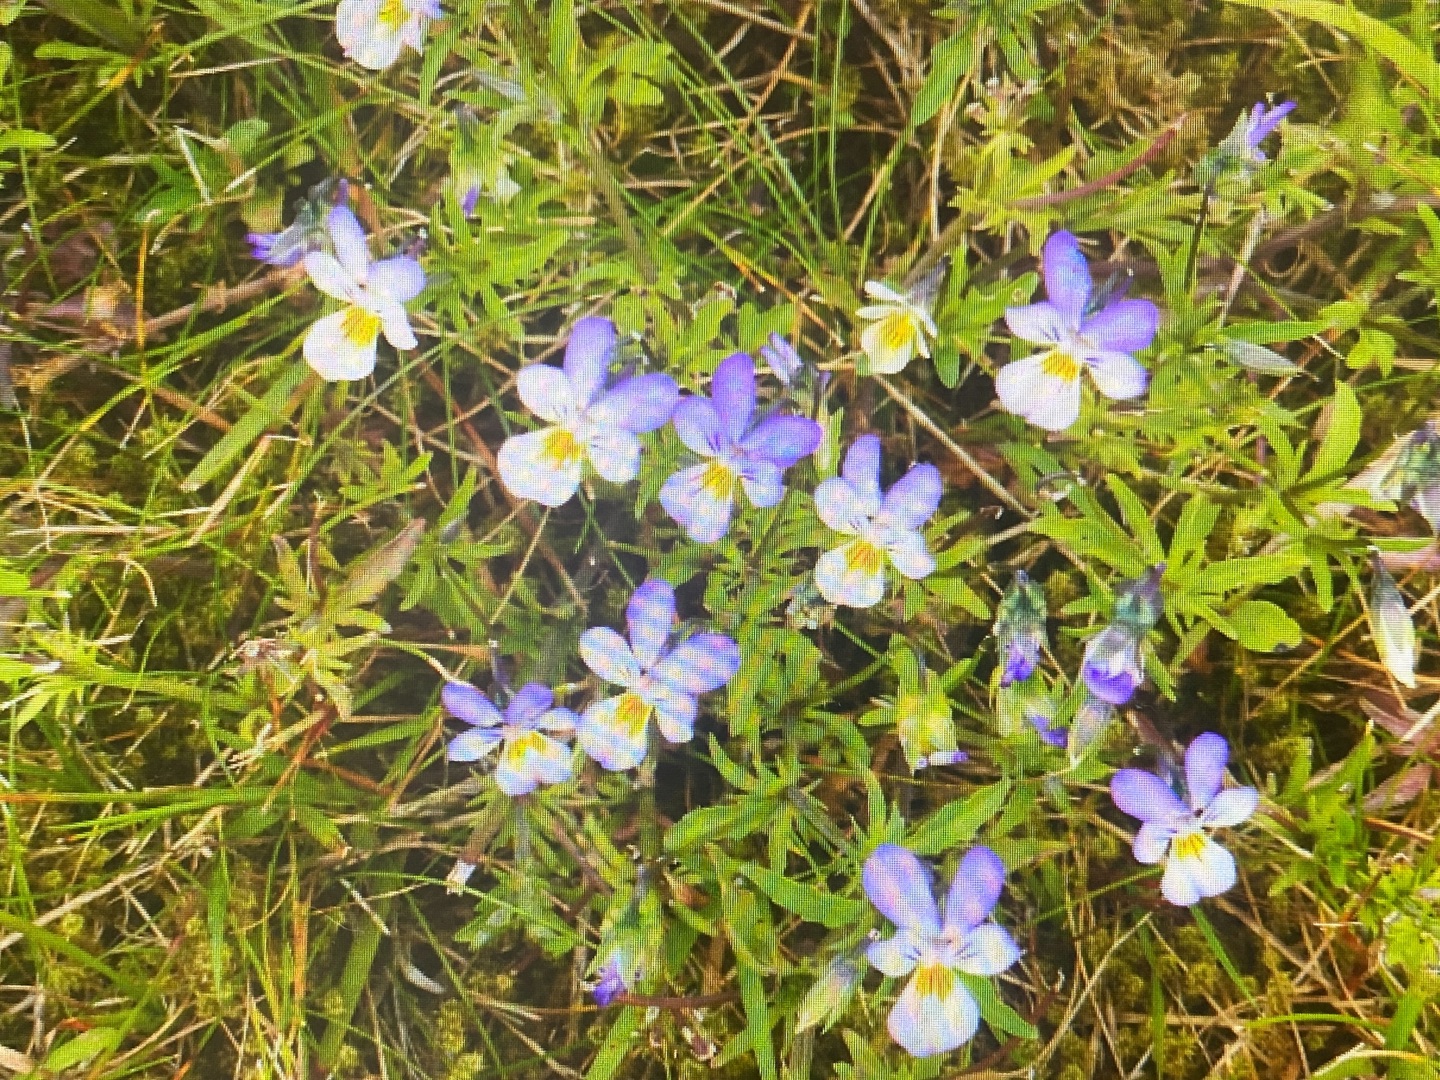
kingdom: Plantae
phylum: Tracheophyta
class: Magnoliopsida
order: Malpighiales
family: Violaceae
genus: Viola
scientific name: Viola tricolor
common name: Stedmoderblomst
